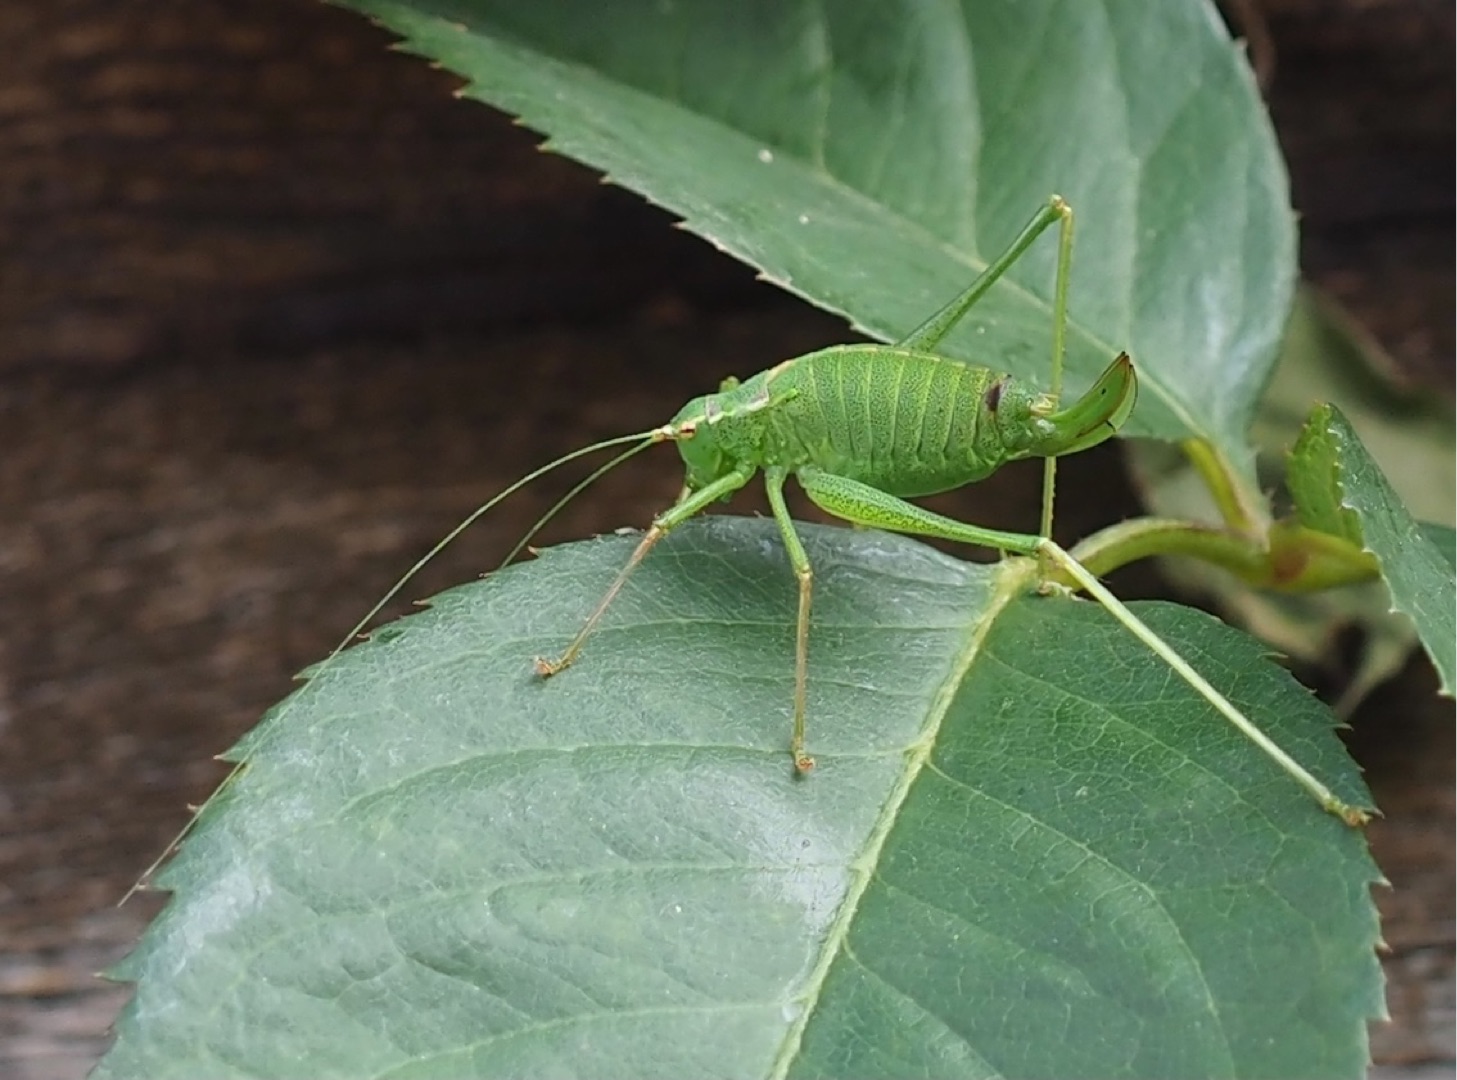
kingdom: Animalia
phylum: Arthropoda
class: Insecta
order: Orthoptera
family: Tettigoniidae
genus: Leptophyes
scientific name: Leptophyes punctatissima
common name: Krumknivgræshoppe
